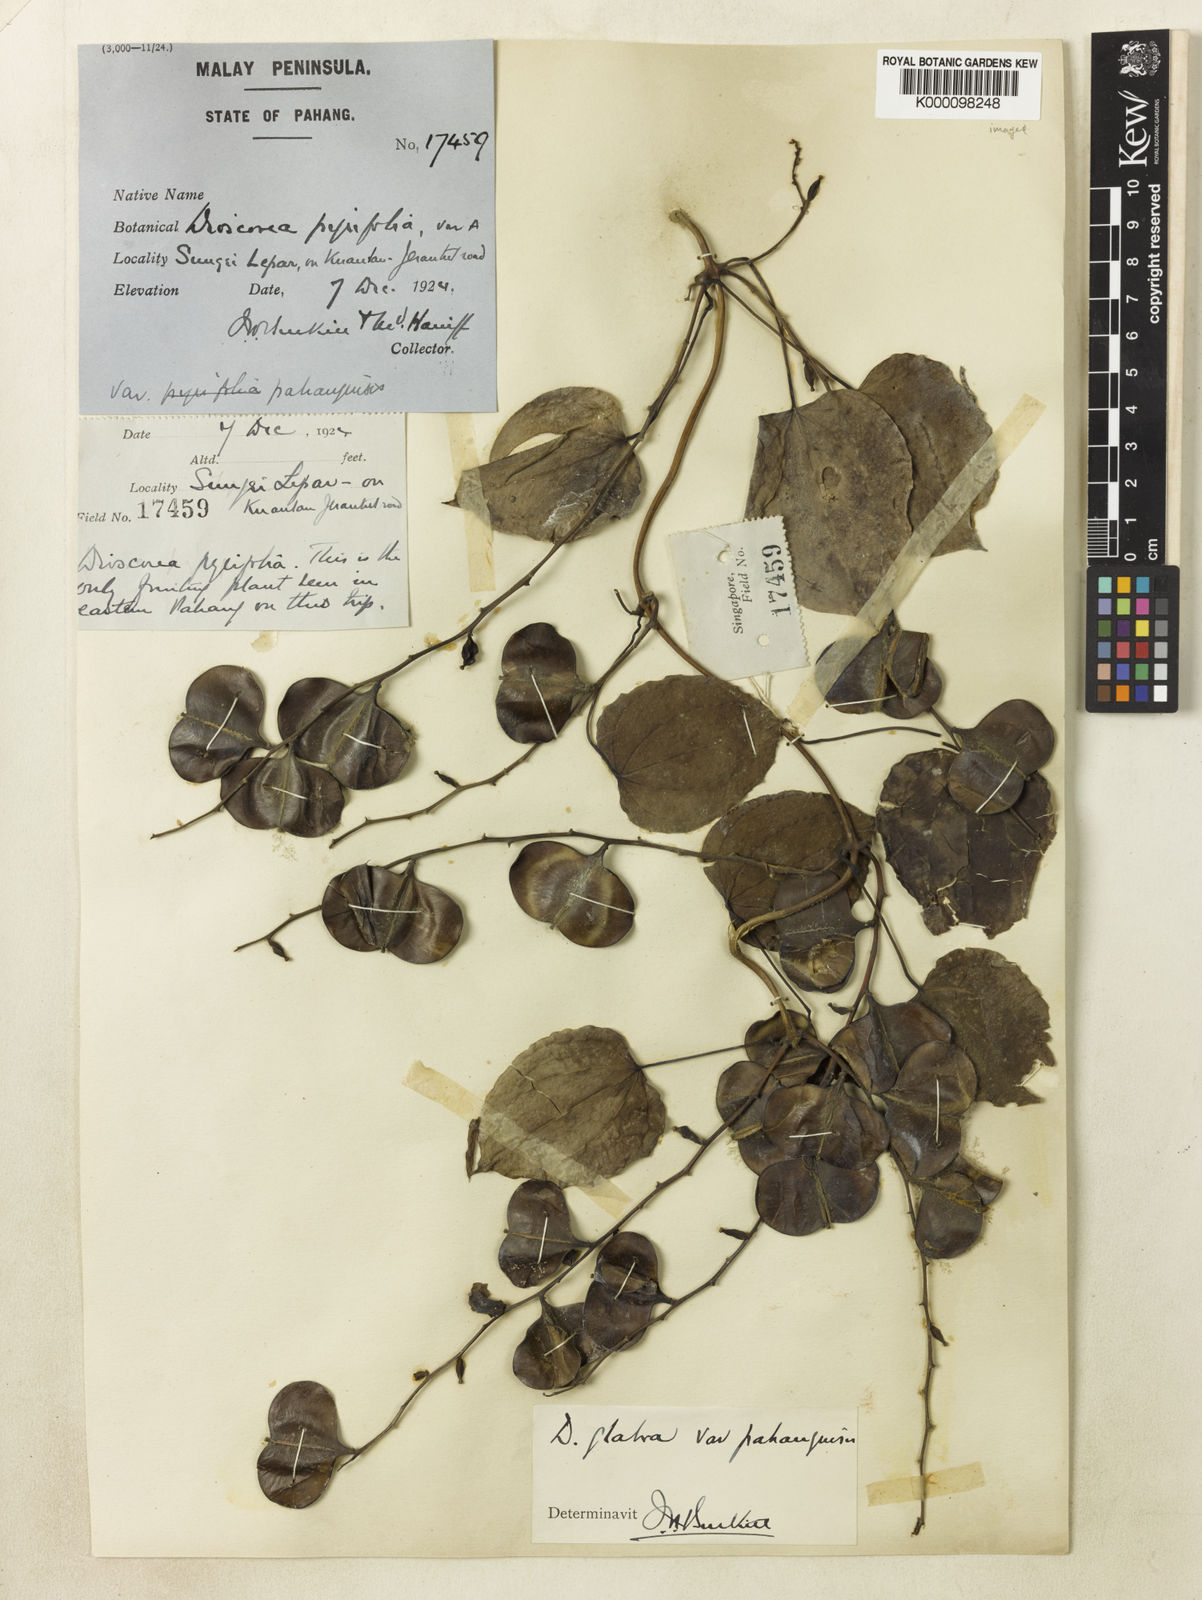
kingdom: Plantae
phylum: Tracheophyta
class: Liliopsida
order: Dioscoreales
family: Dioscoreaceae
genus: Dioscorea
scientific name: Dioscorea glabra
